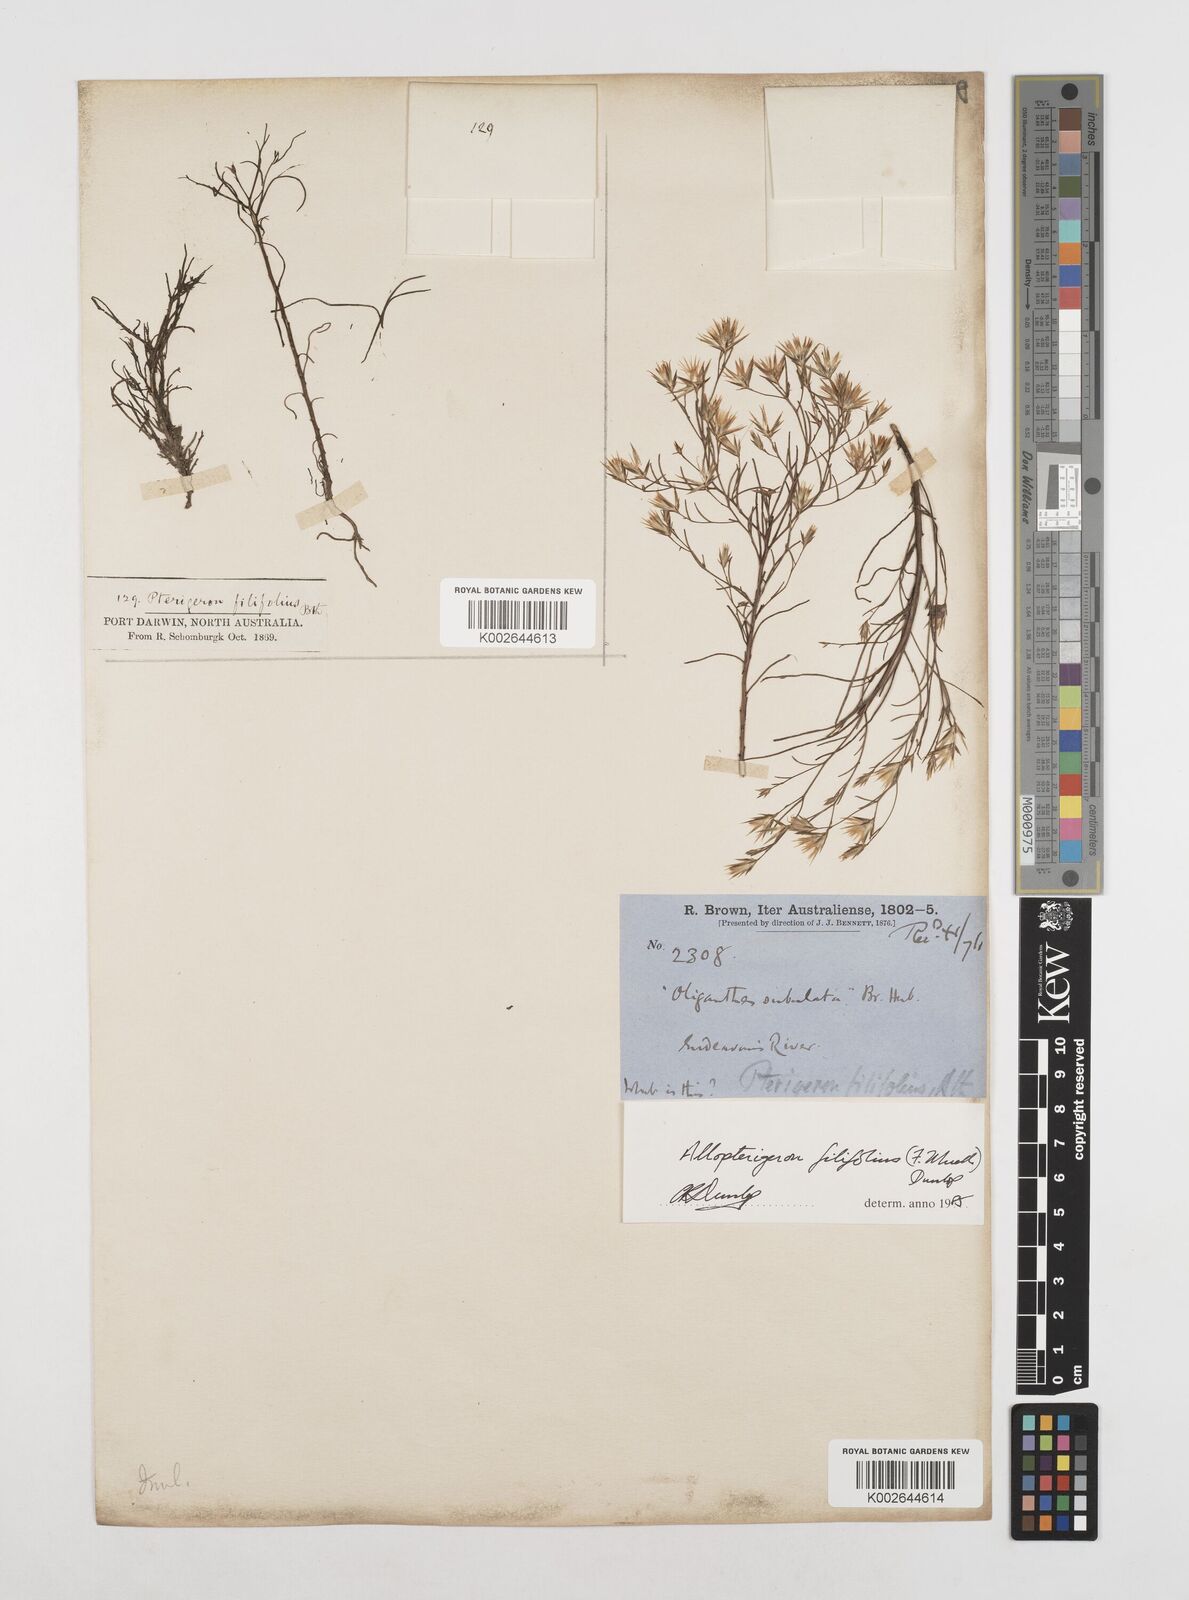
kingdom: Plantae
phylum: Tracheophyta
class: Magnoliopsida
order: Asterales
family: Asteraceae
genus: Allopterigeron
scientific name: Allopterigeron filifolius
